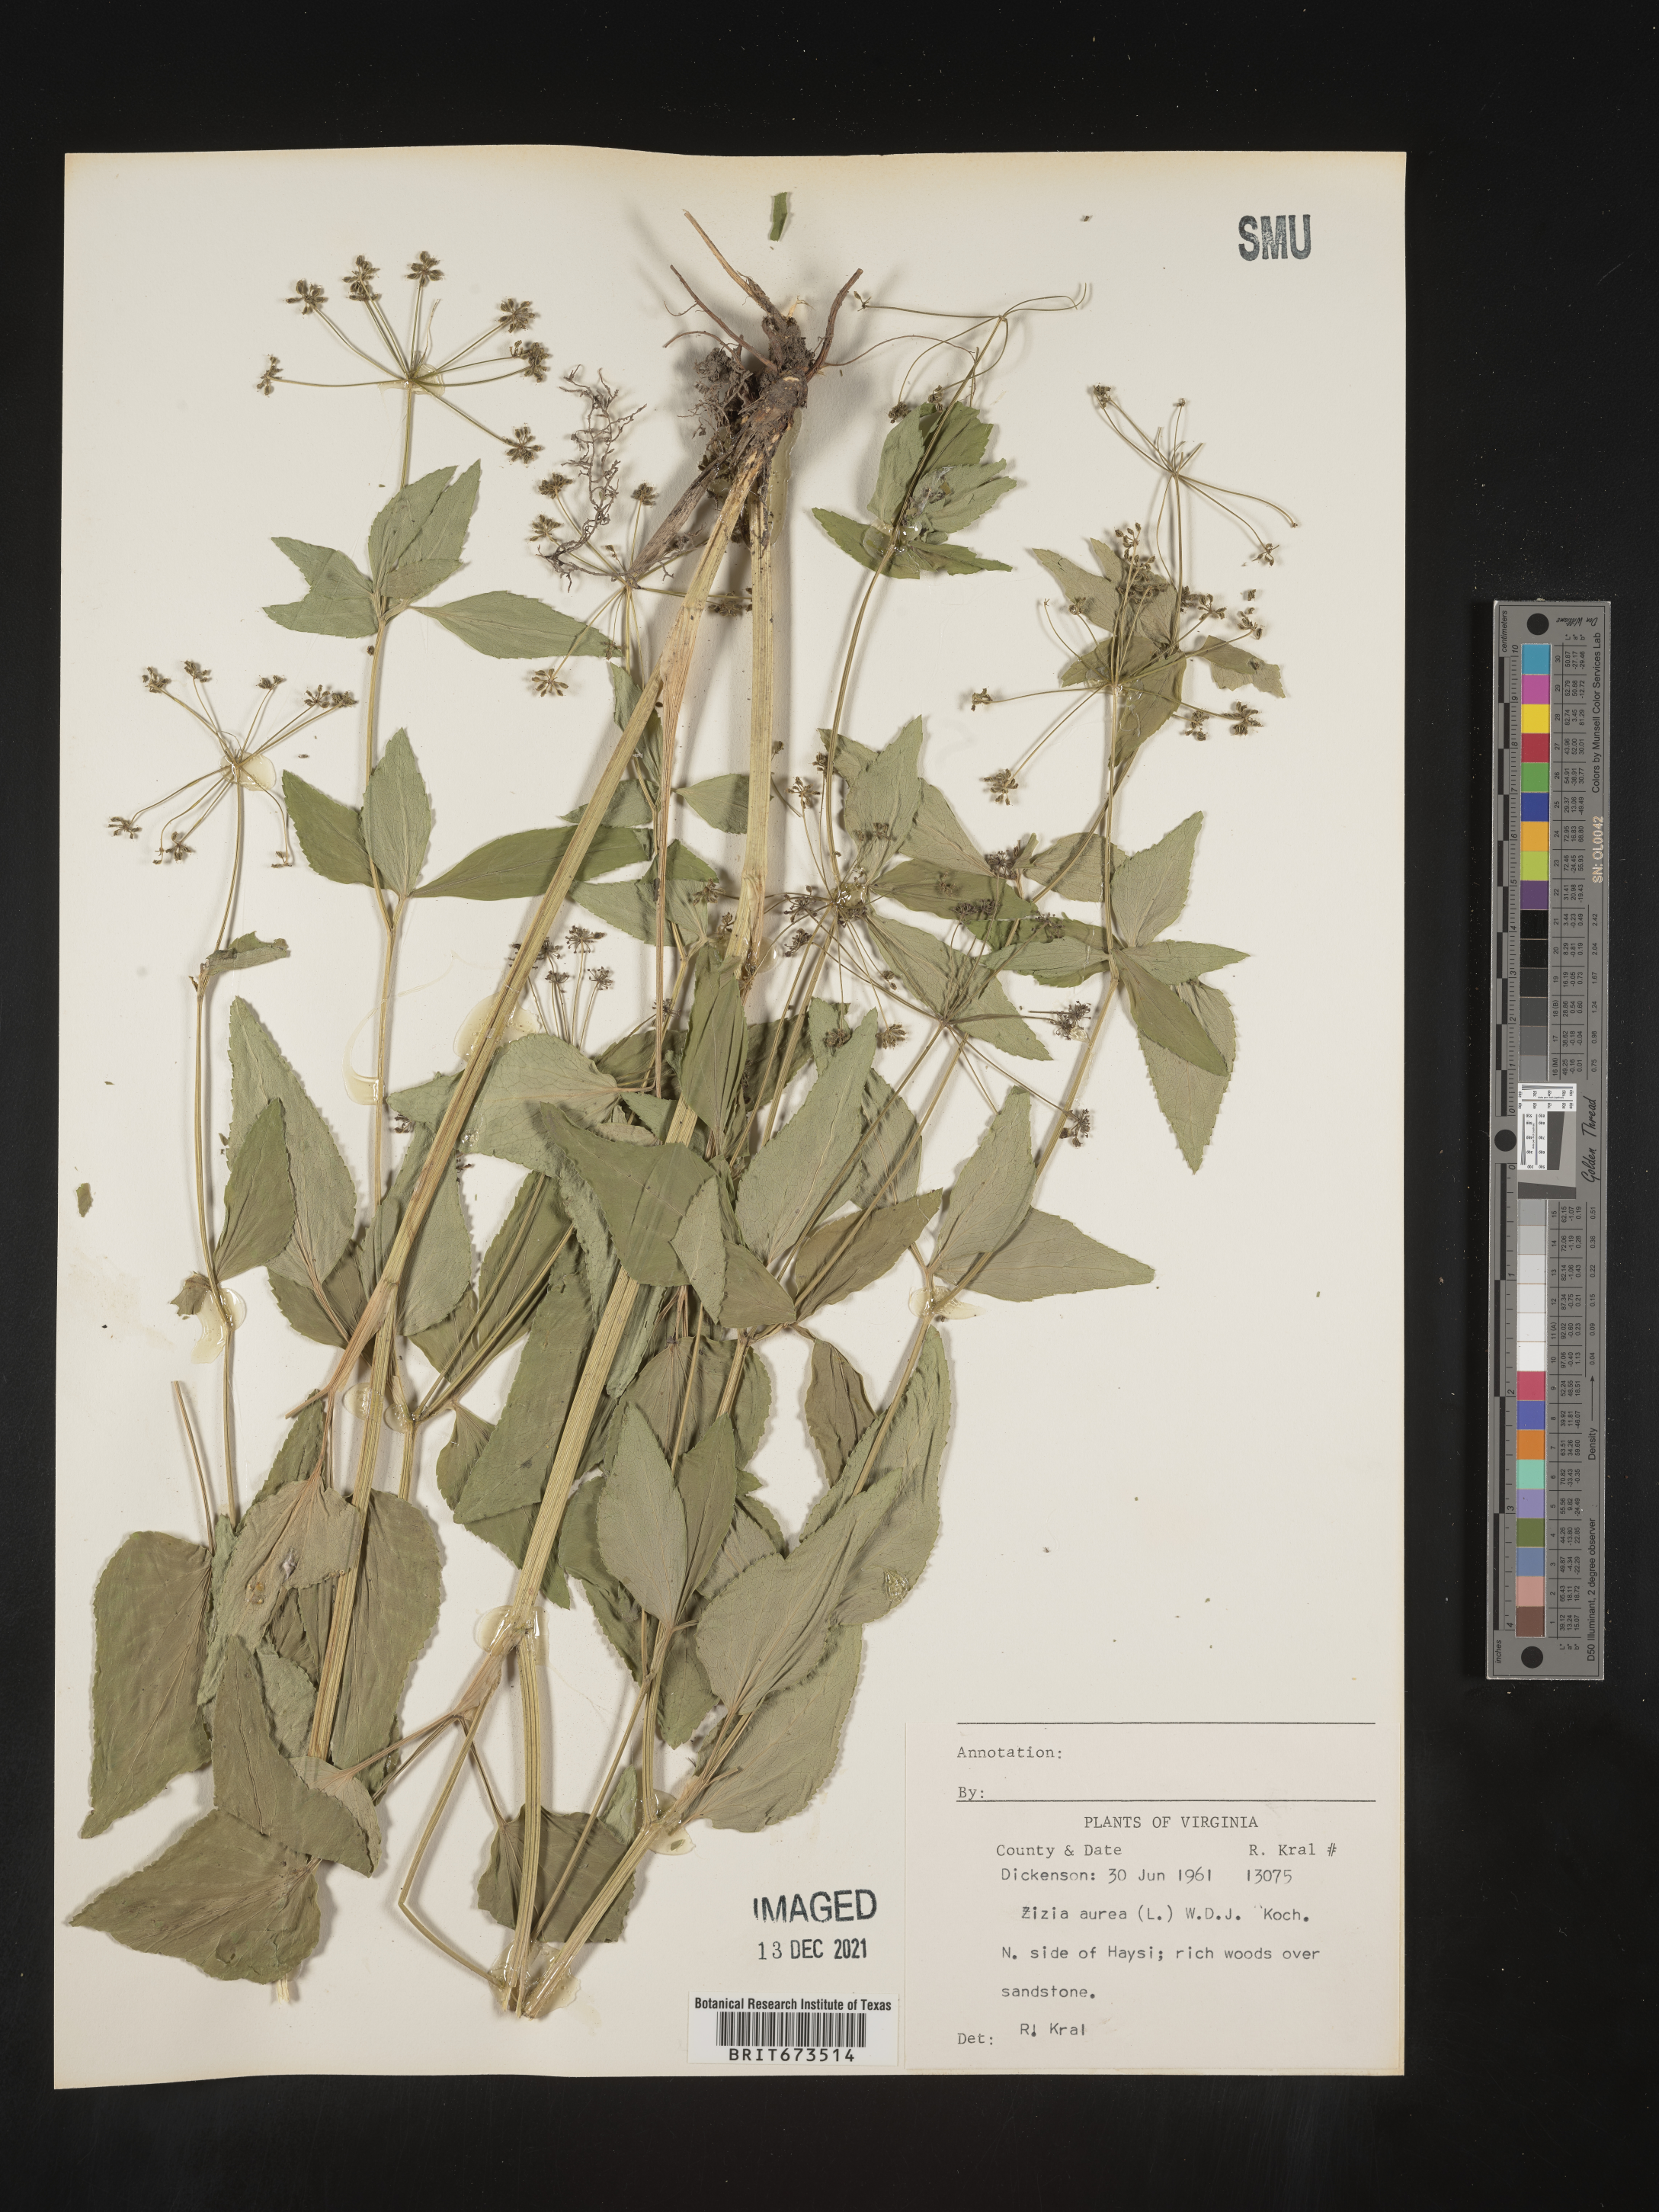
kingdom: Plantae
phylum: Tracheophyta
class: Magnoliopsida
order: Apiales
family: Apiaceae
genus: Zizia
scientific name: Zizia aurea
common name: Golden alexanders
